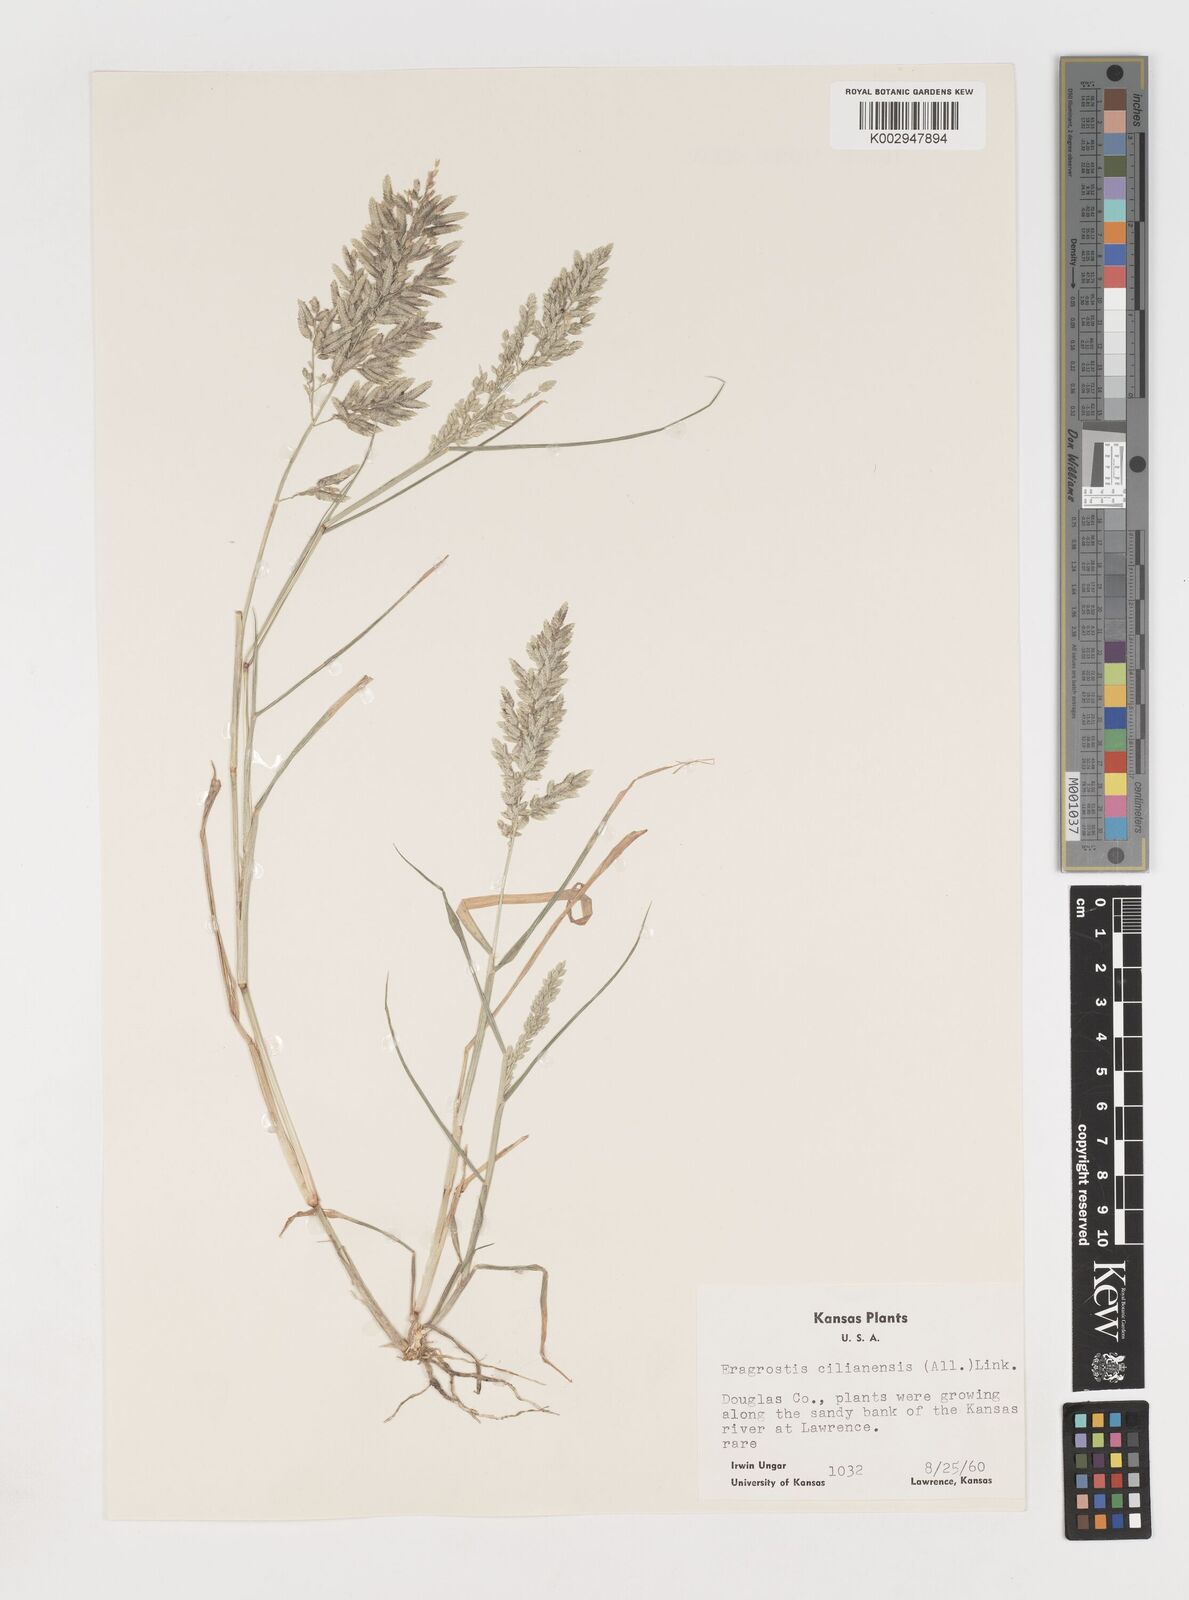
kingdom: Plantae
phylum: Tracheophyta
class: Liliopsida
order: Poales
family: Poaceae
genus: Eragrostis
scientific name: Eragrostis cilianensis
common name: Stinkgrass
